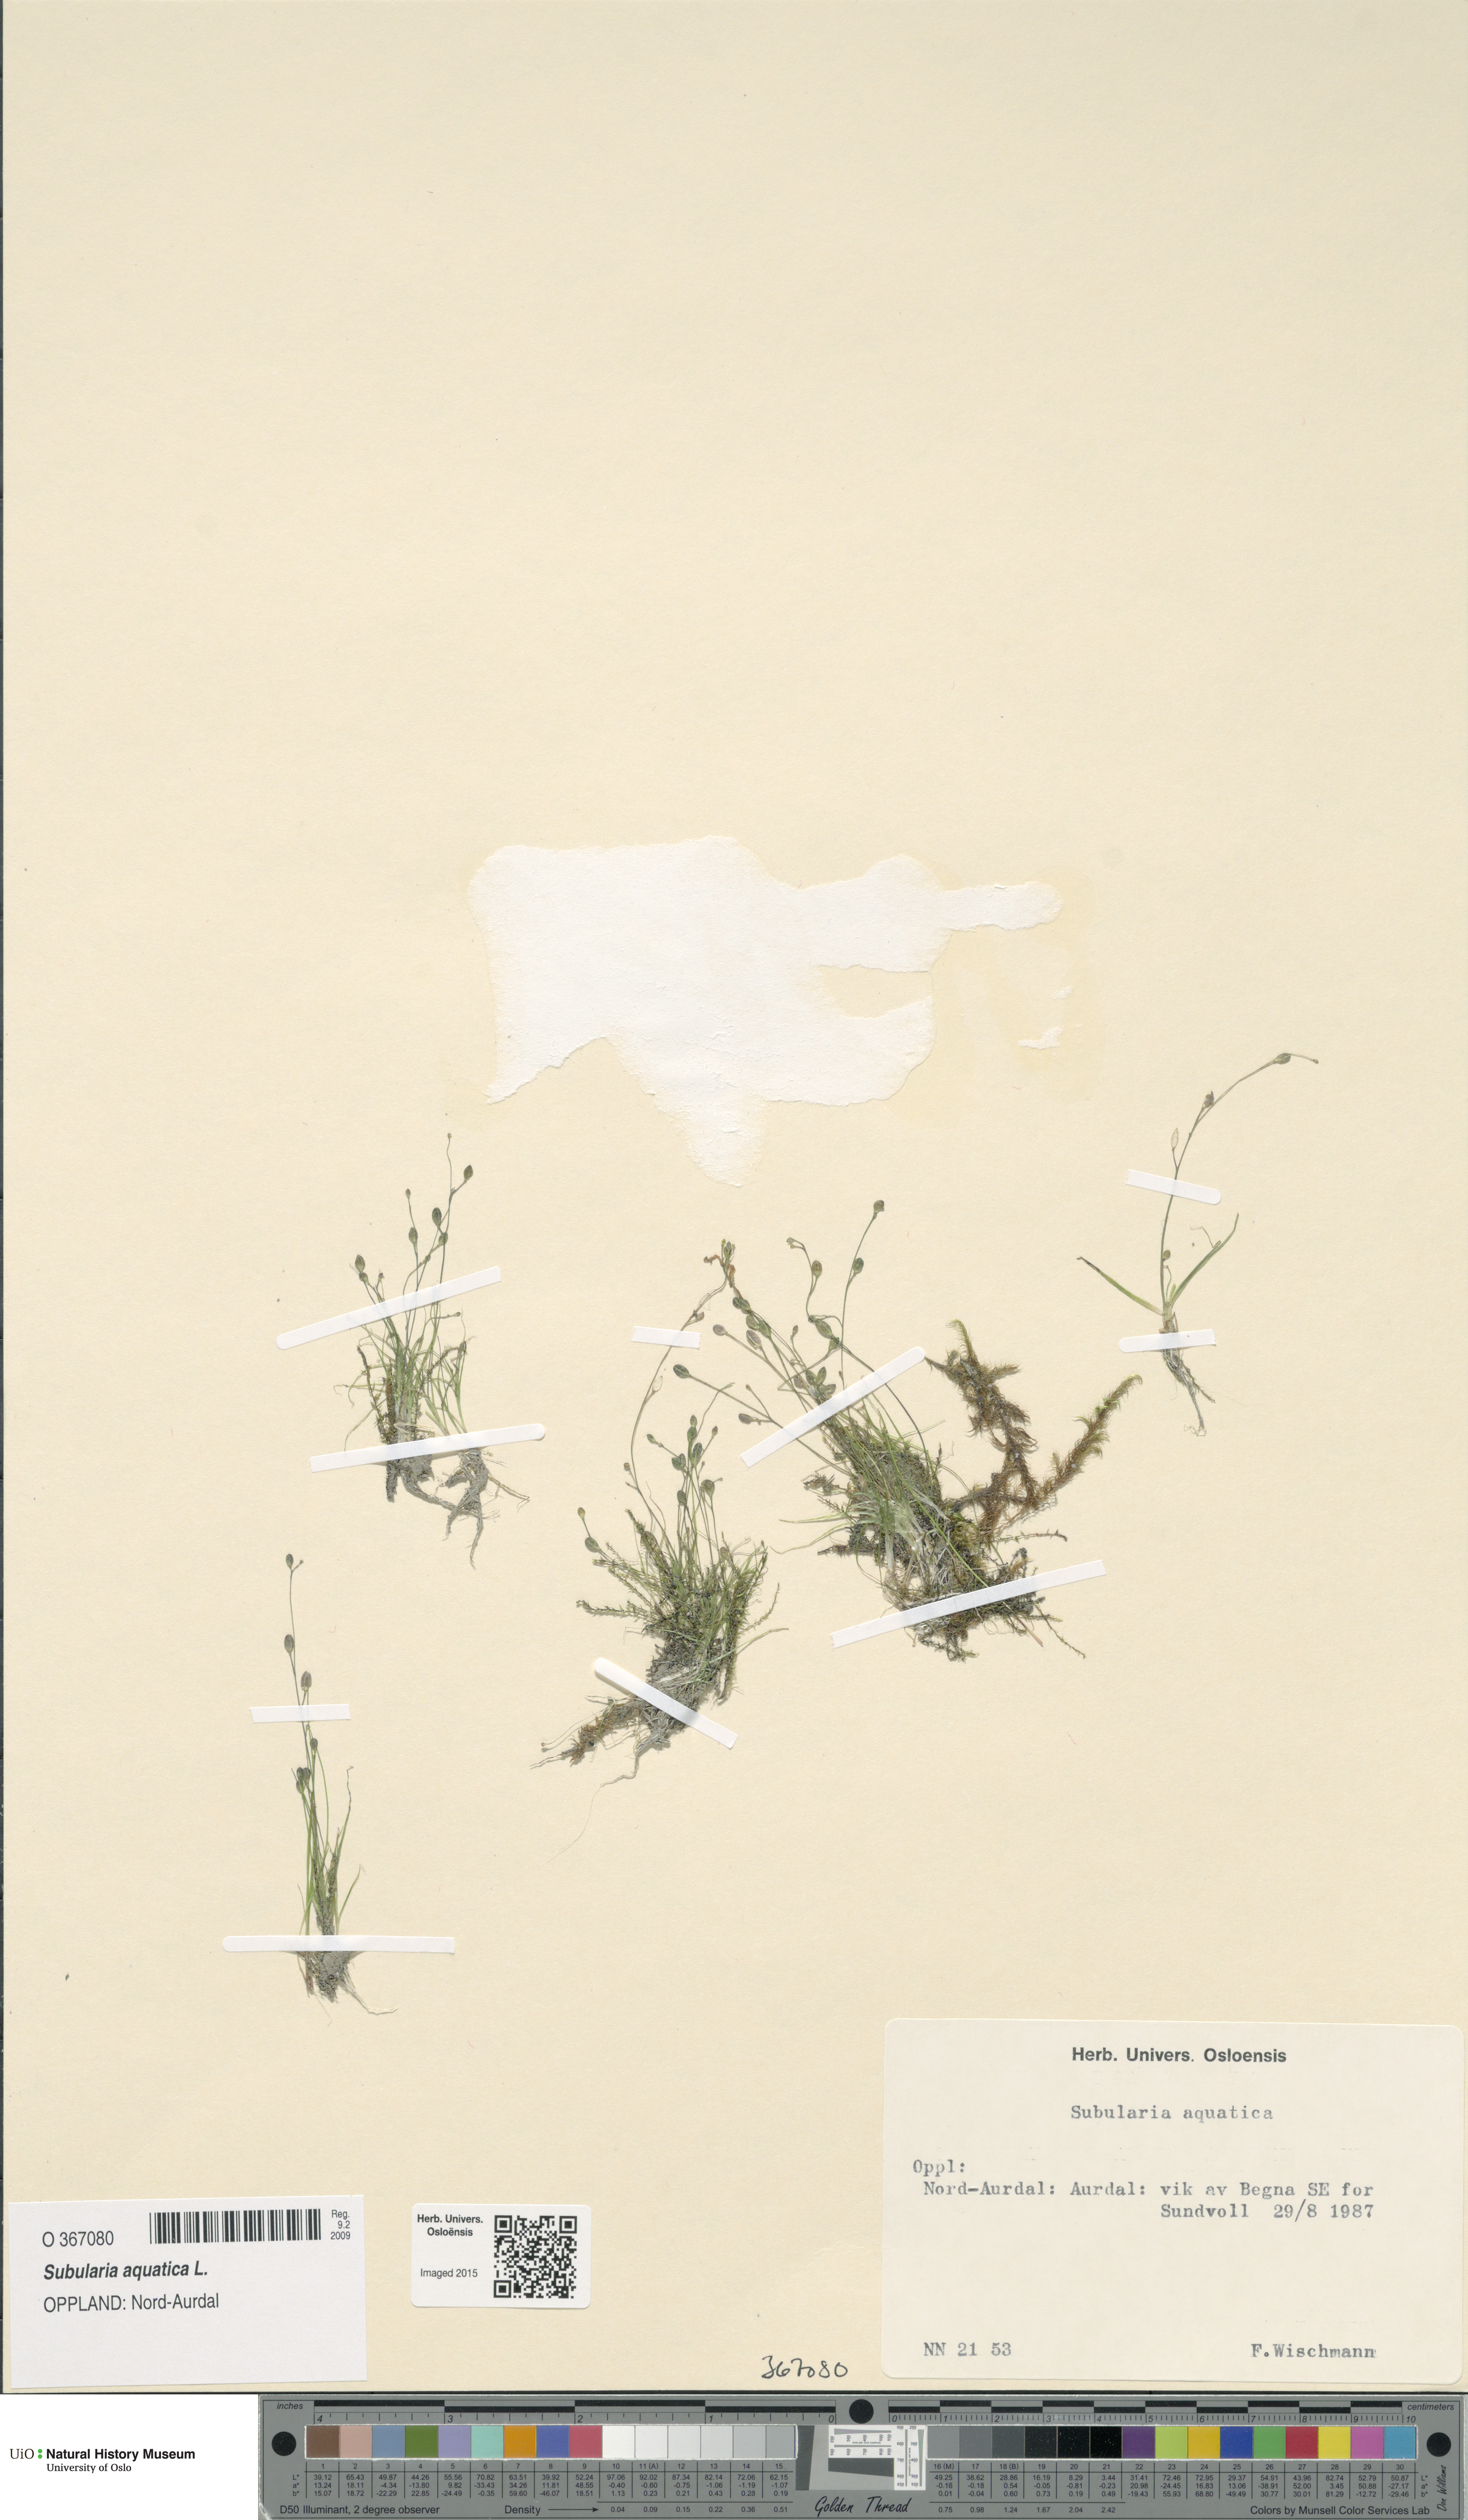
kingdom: Plantae
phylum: Tracheophyta
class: Magnoliopsida
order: Brassicales
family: Brassicaceae
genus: Subularia
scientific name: Subularia aquatica
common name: Awlwort
